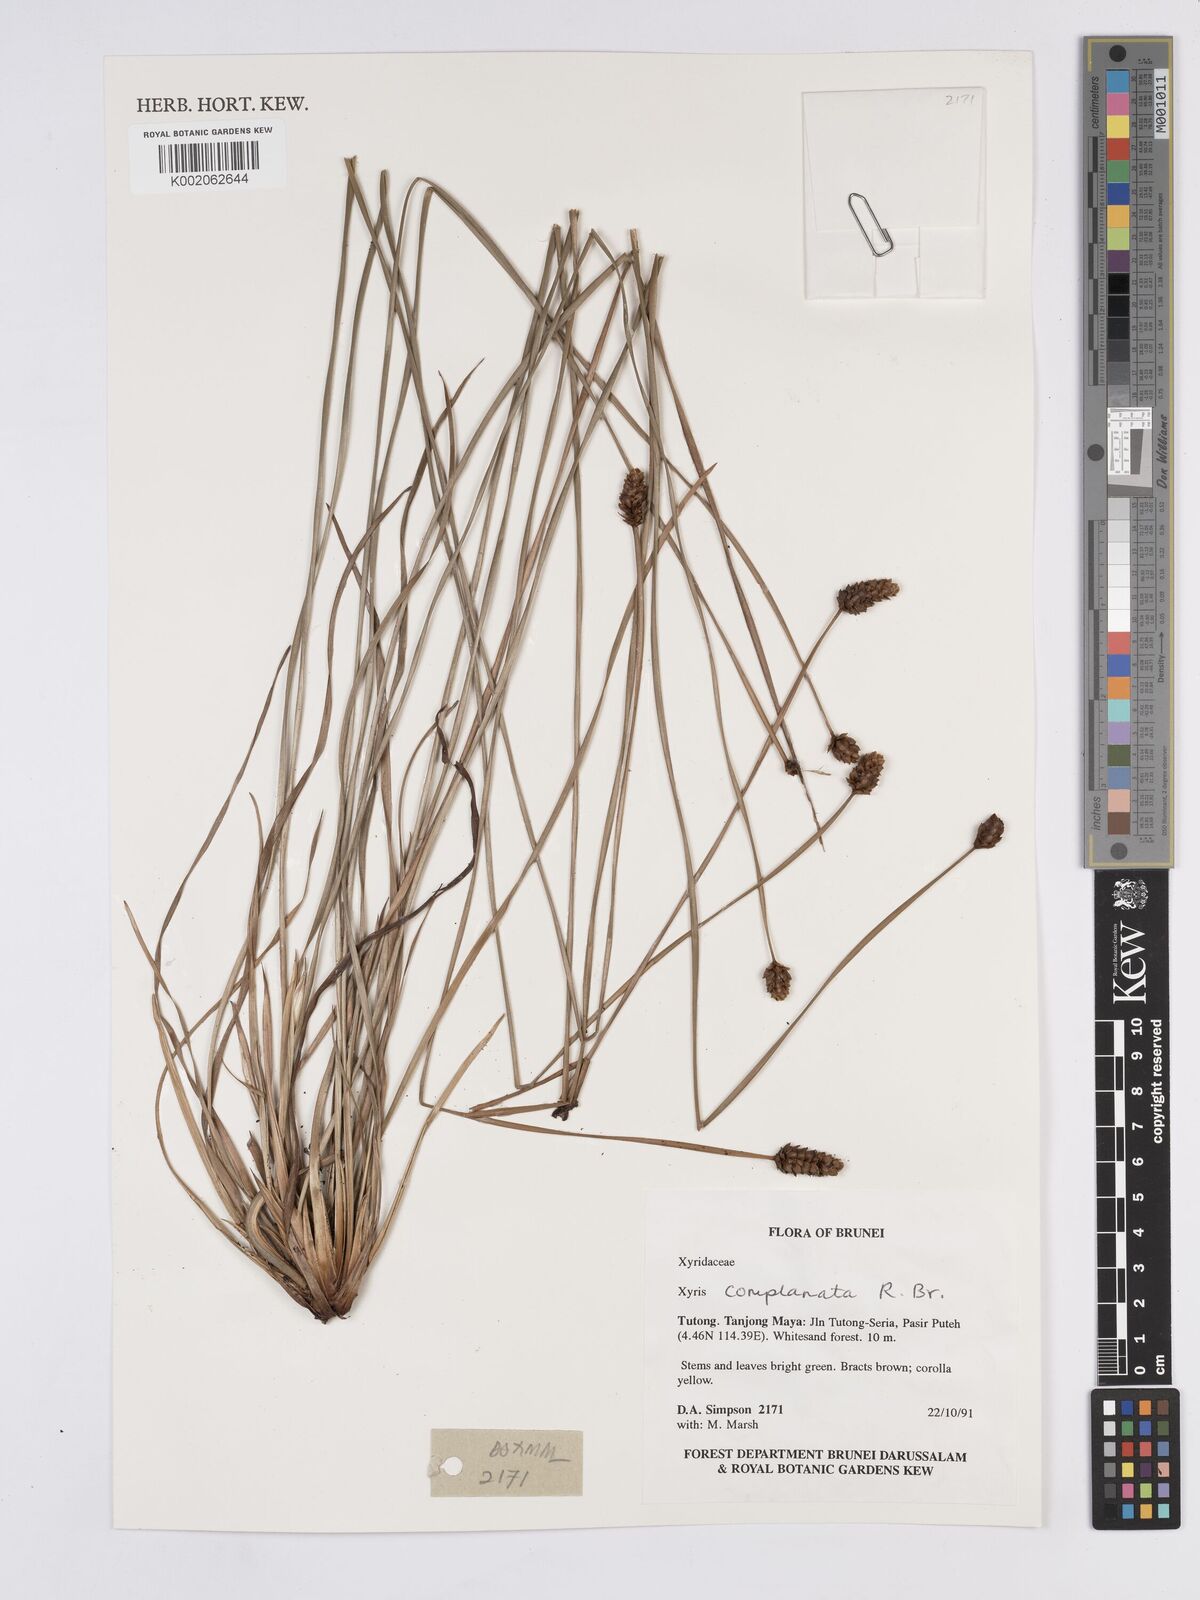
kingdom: Plantae
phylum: Tracheophyta
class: Liliopsida
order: Poales
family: Xyridaceae
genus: Xyris
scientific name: Xyris complanata
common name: Hawai'i yelloweyed grass
